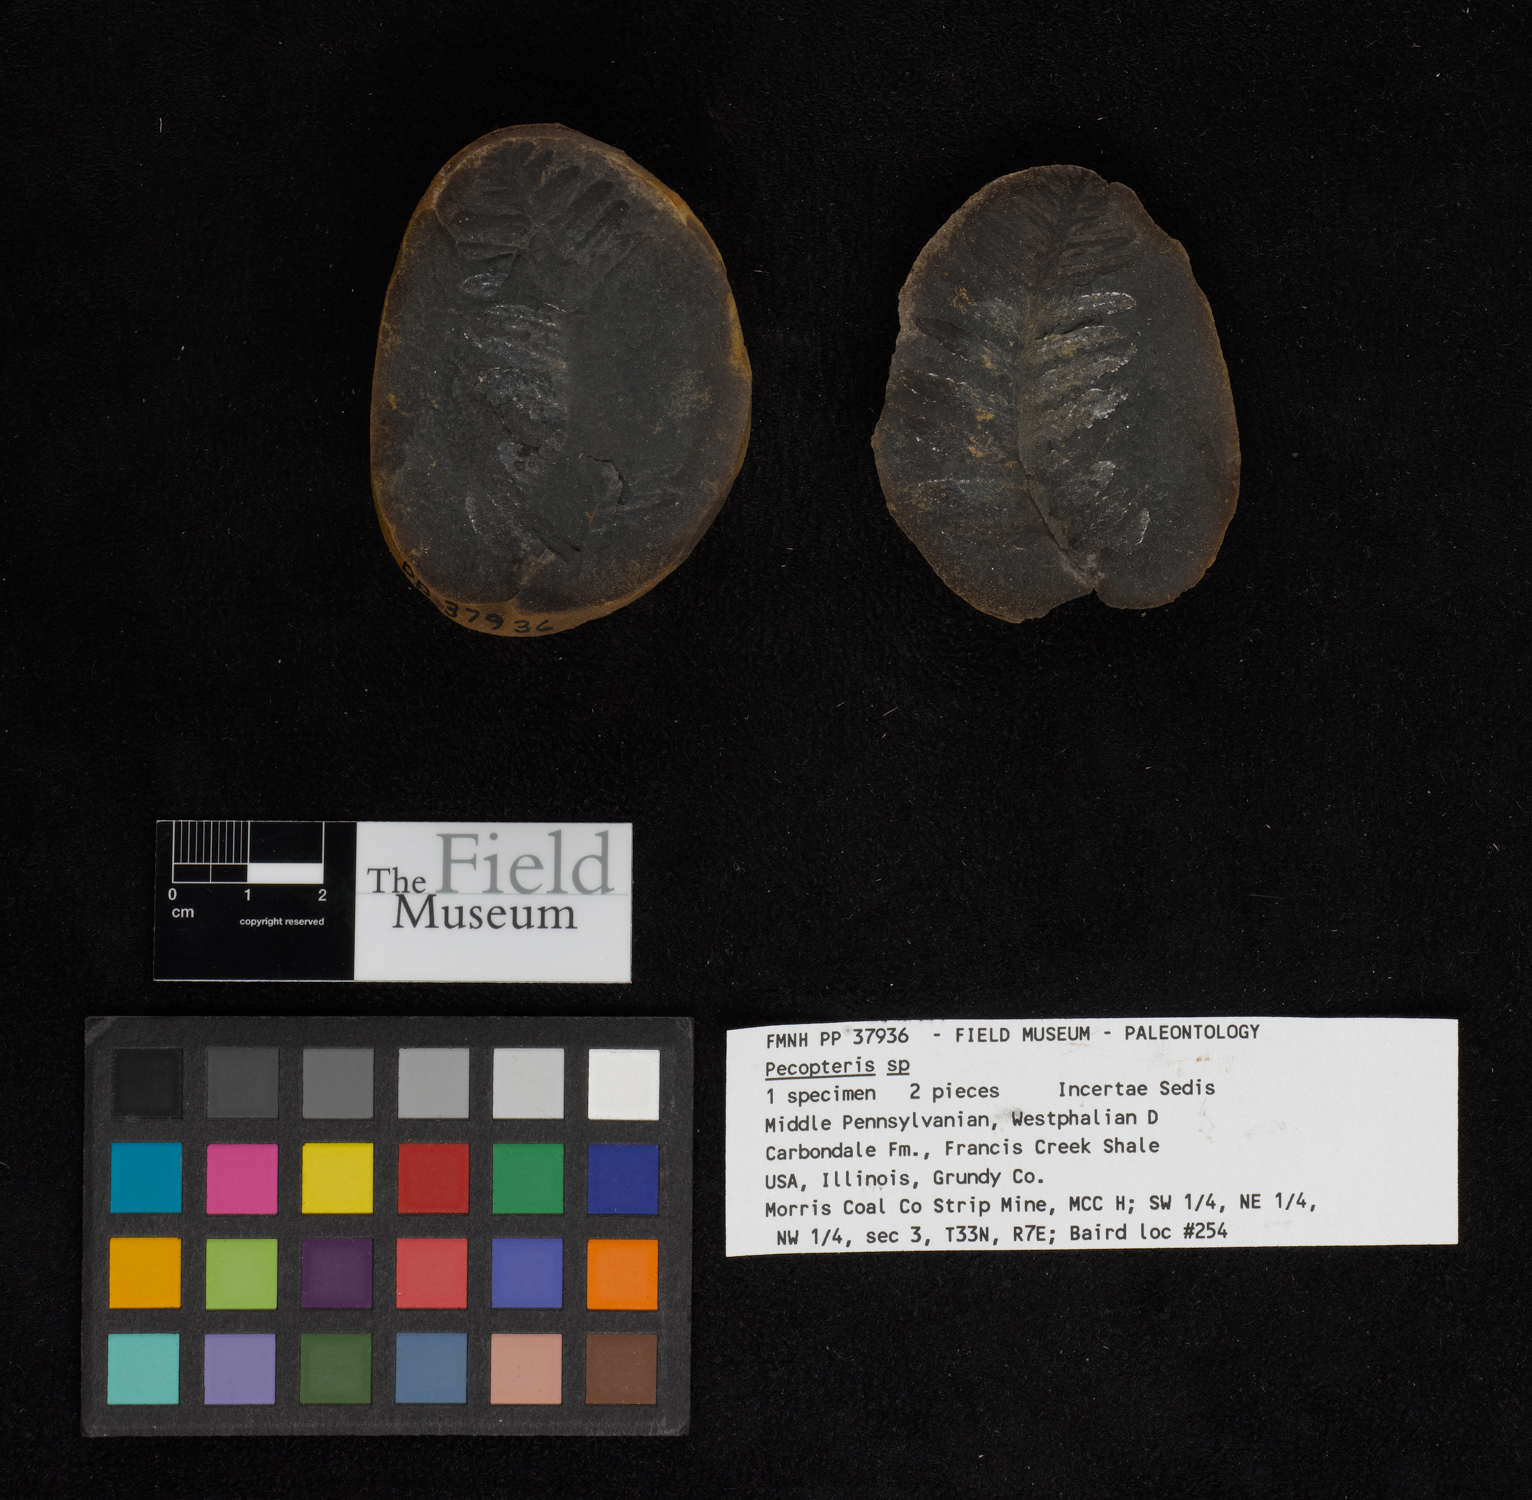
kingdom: Plantae
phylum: Tracheophyta
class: Polypodiopsida
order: Marattiales
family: Asterothecaceae
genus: Pecopteris
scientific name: Pecopteris
